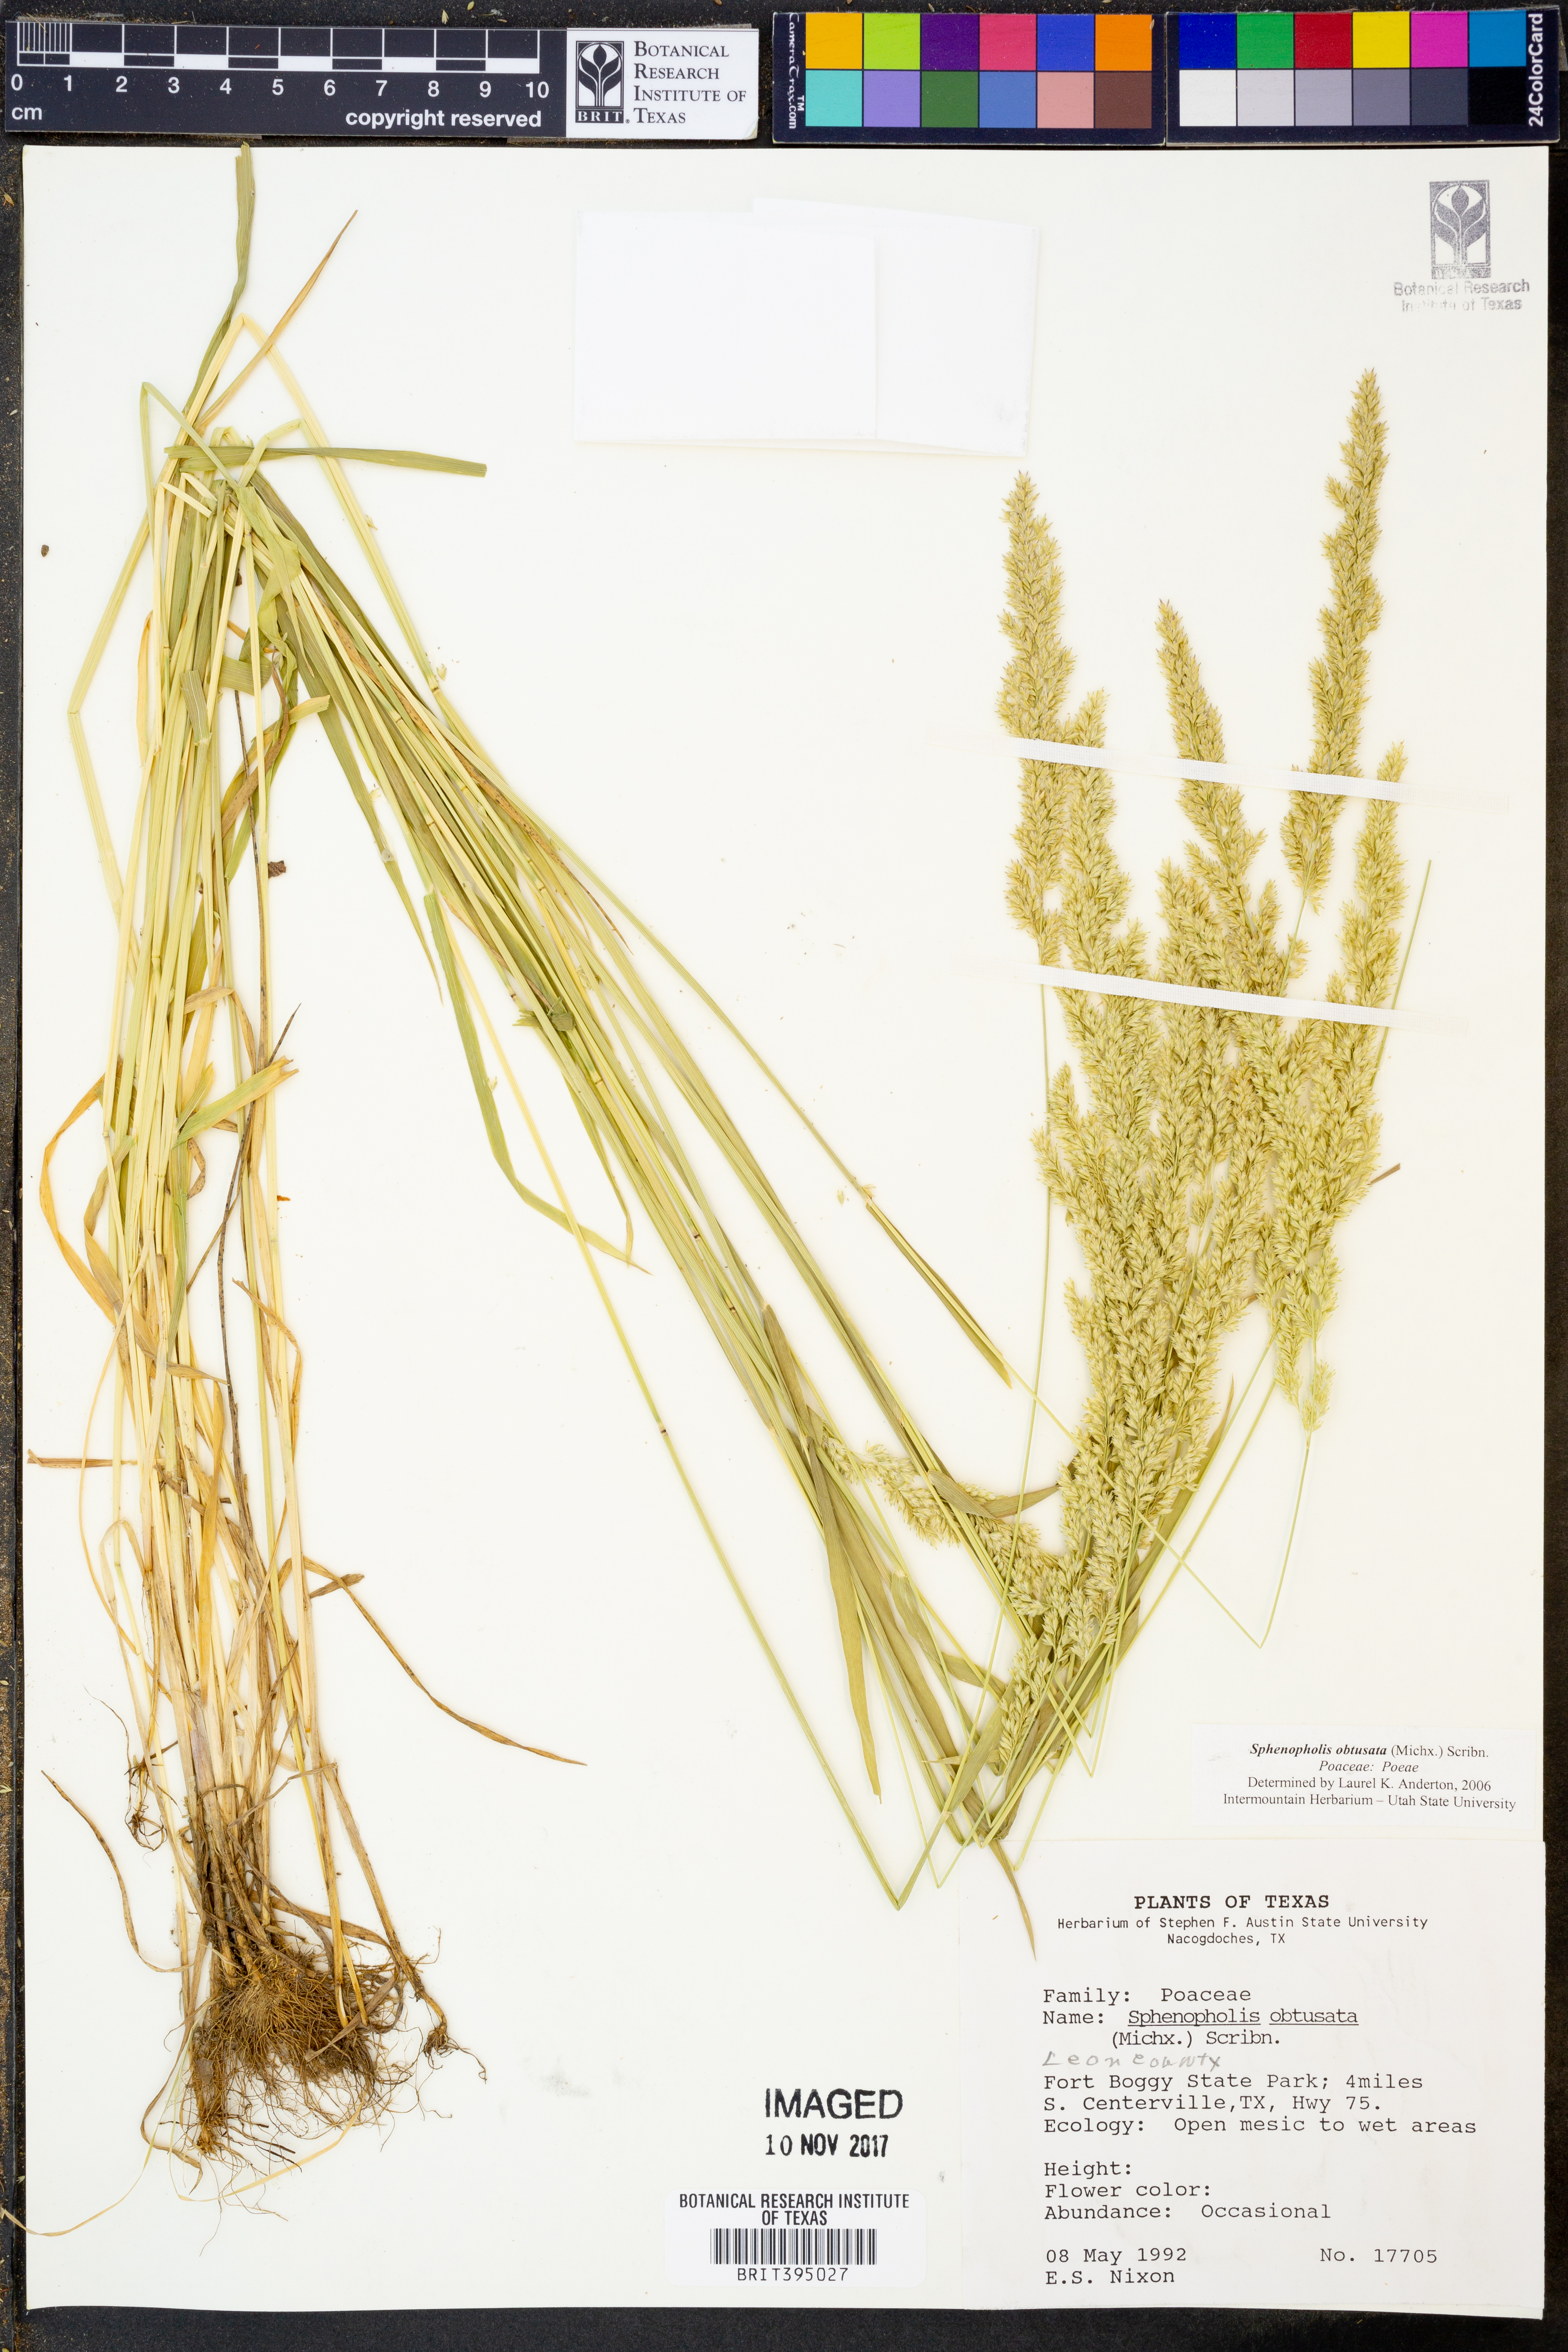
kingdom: Plantae
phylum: Tracheophyta
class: Liliopsida
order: Poales
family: Poaceae
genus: Sphenopholis
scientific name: Sphenopholis obtusata
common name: Prairie grass
